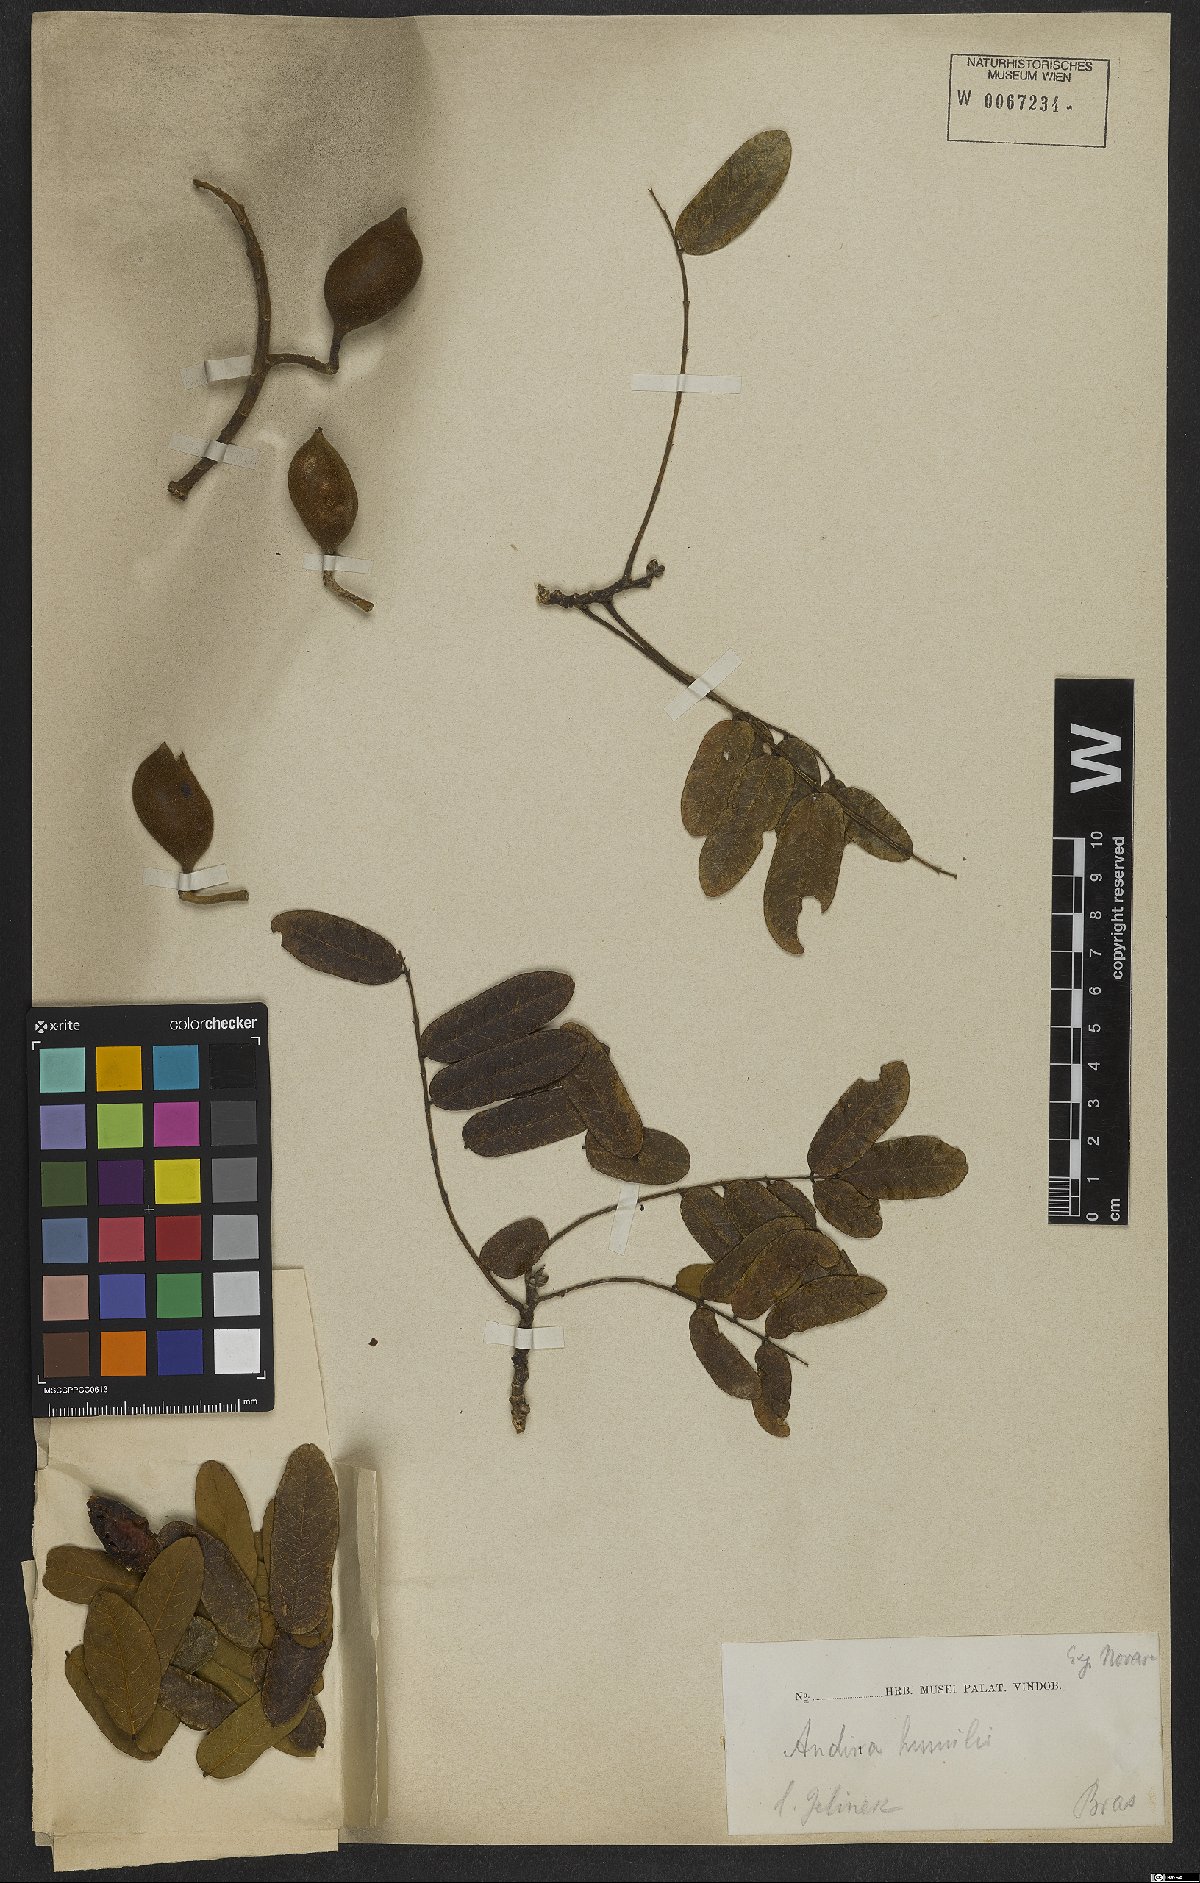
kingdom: Plantae
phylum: Tracheophyta
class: Magnoliopsida
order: Fabales
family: Fabaceae
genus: Andira
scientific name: Andira humilis
